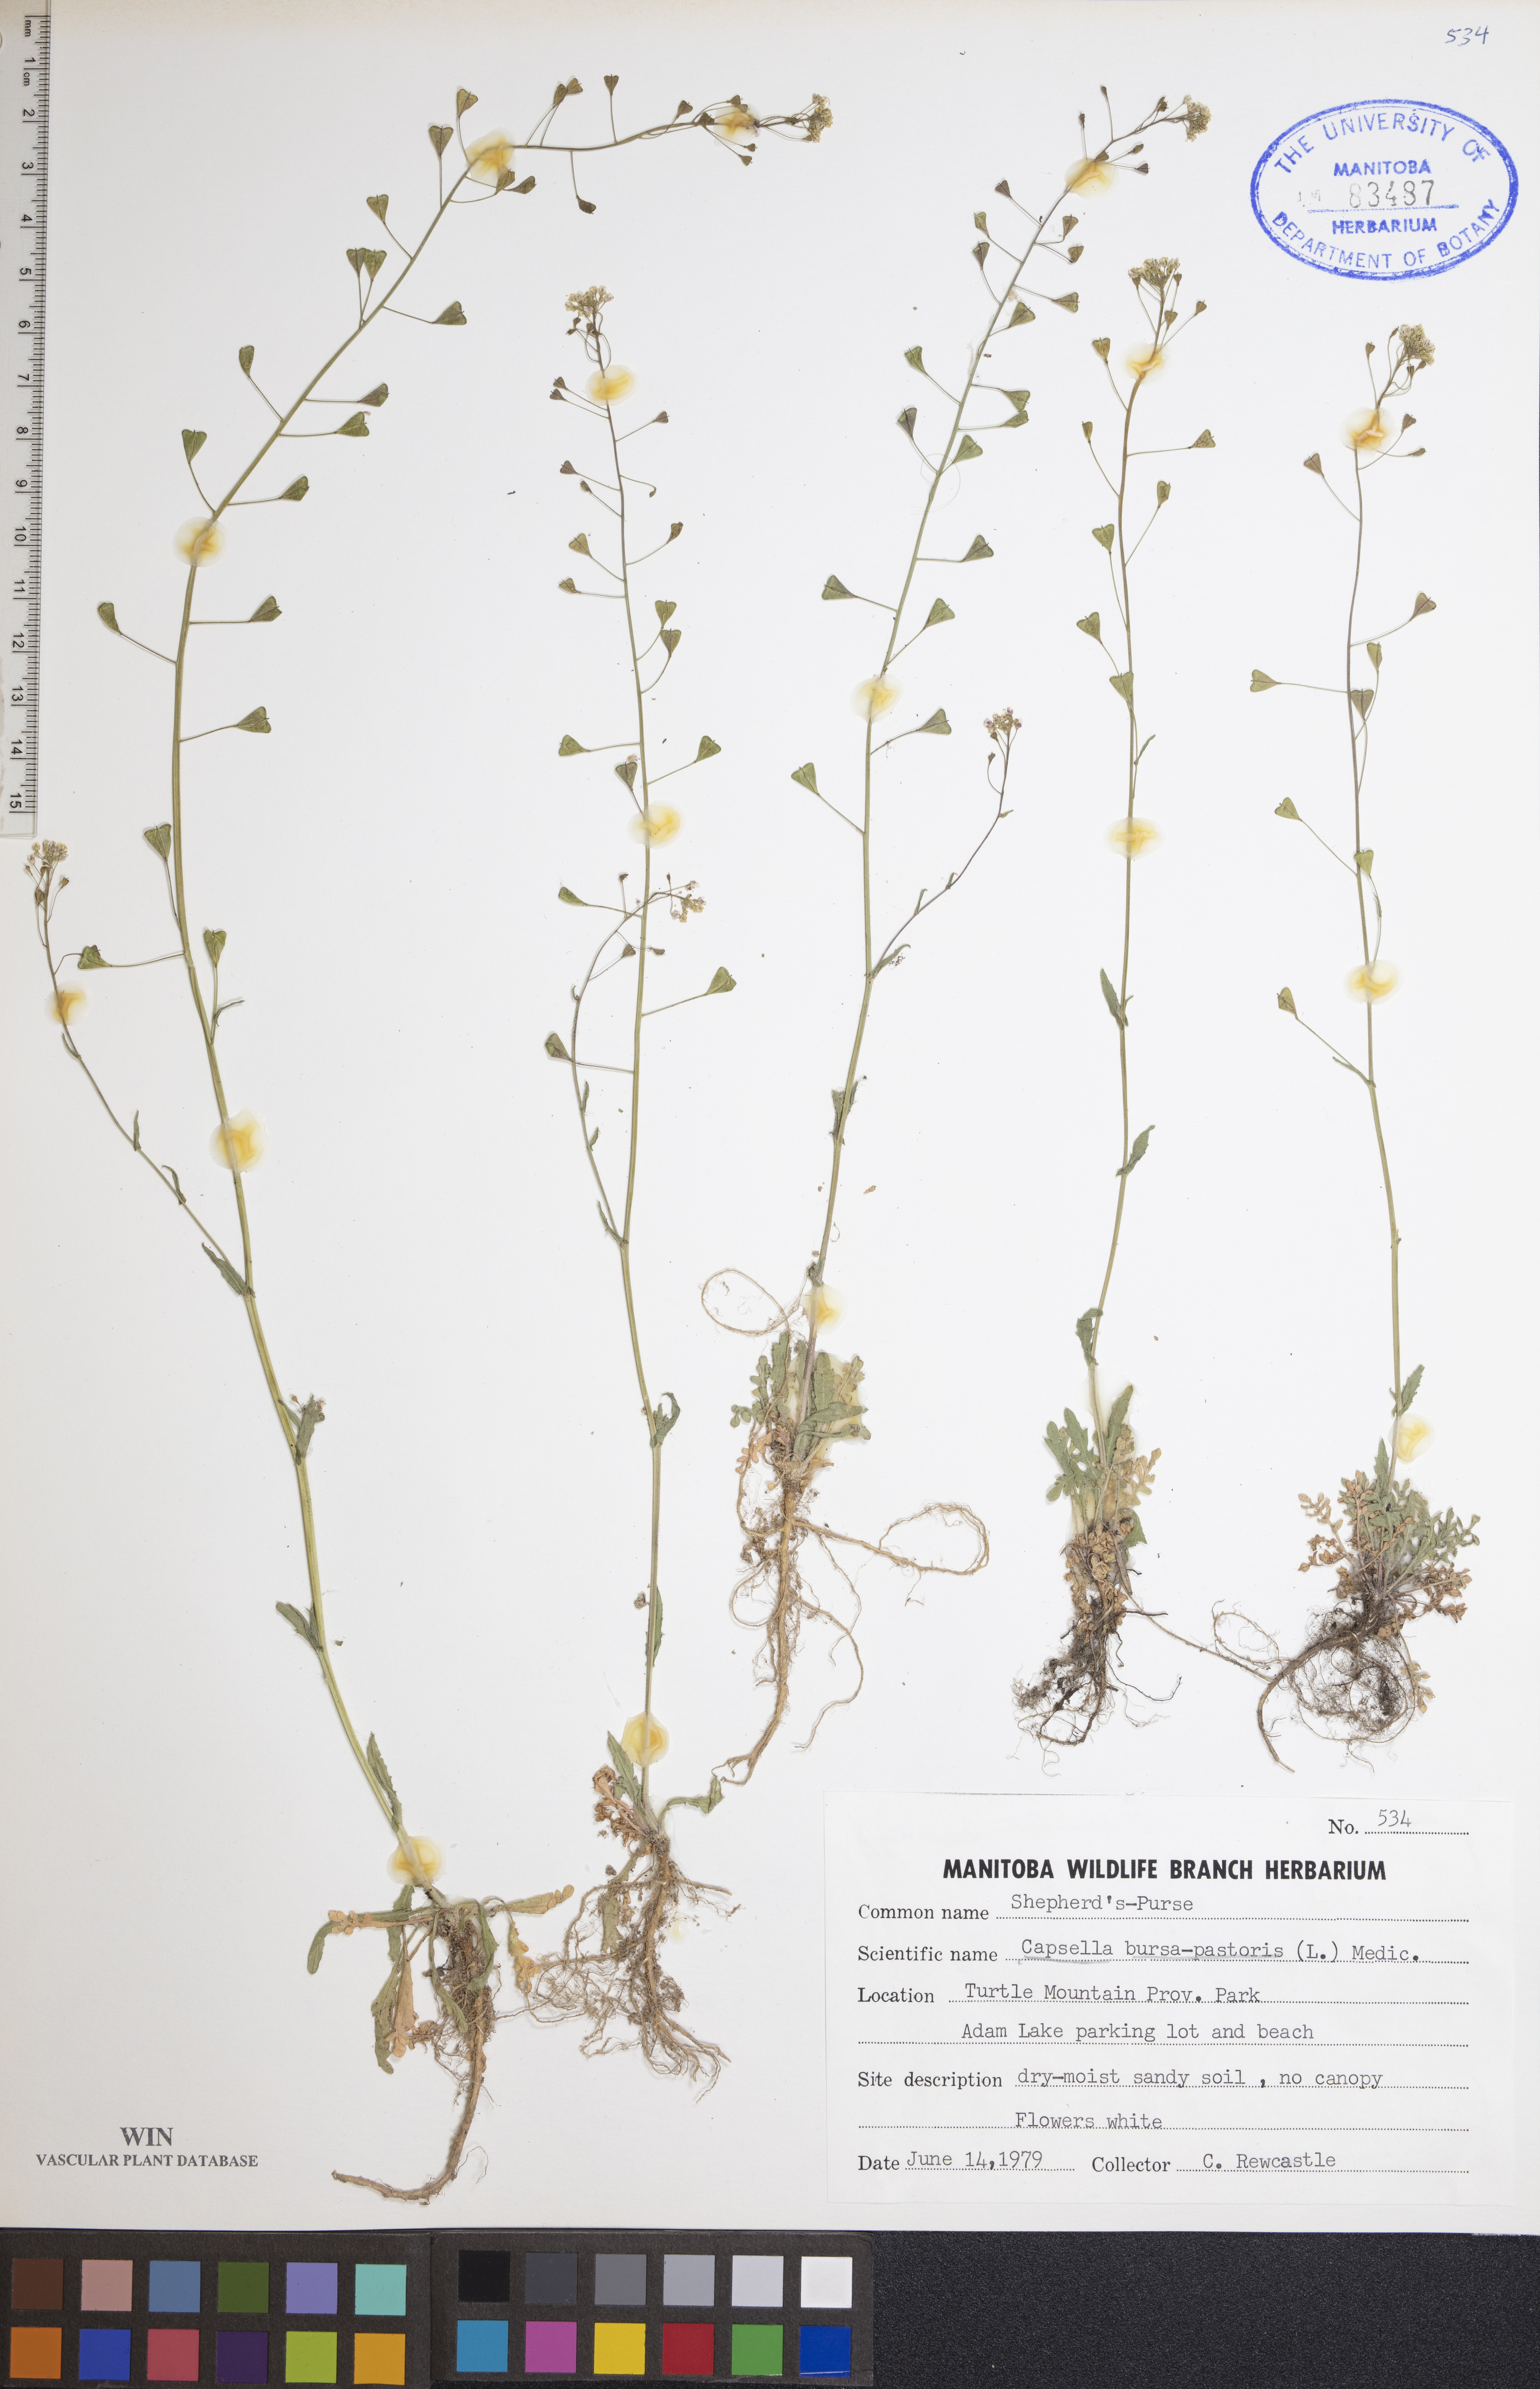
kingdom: Plantae
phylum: Tracheophyta
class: Magnoliopsida
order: Brassicales
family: Brassicaceae
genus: Capsella
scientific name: Capsella bursa-pastoris
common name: Shepherd's purse
